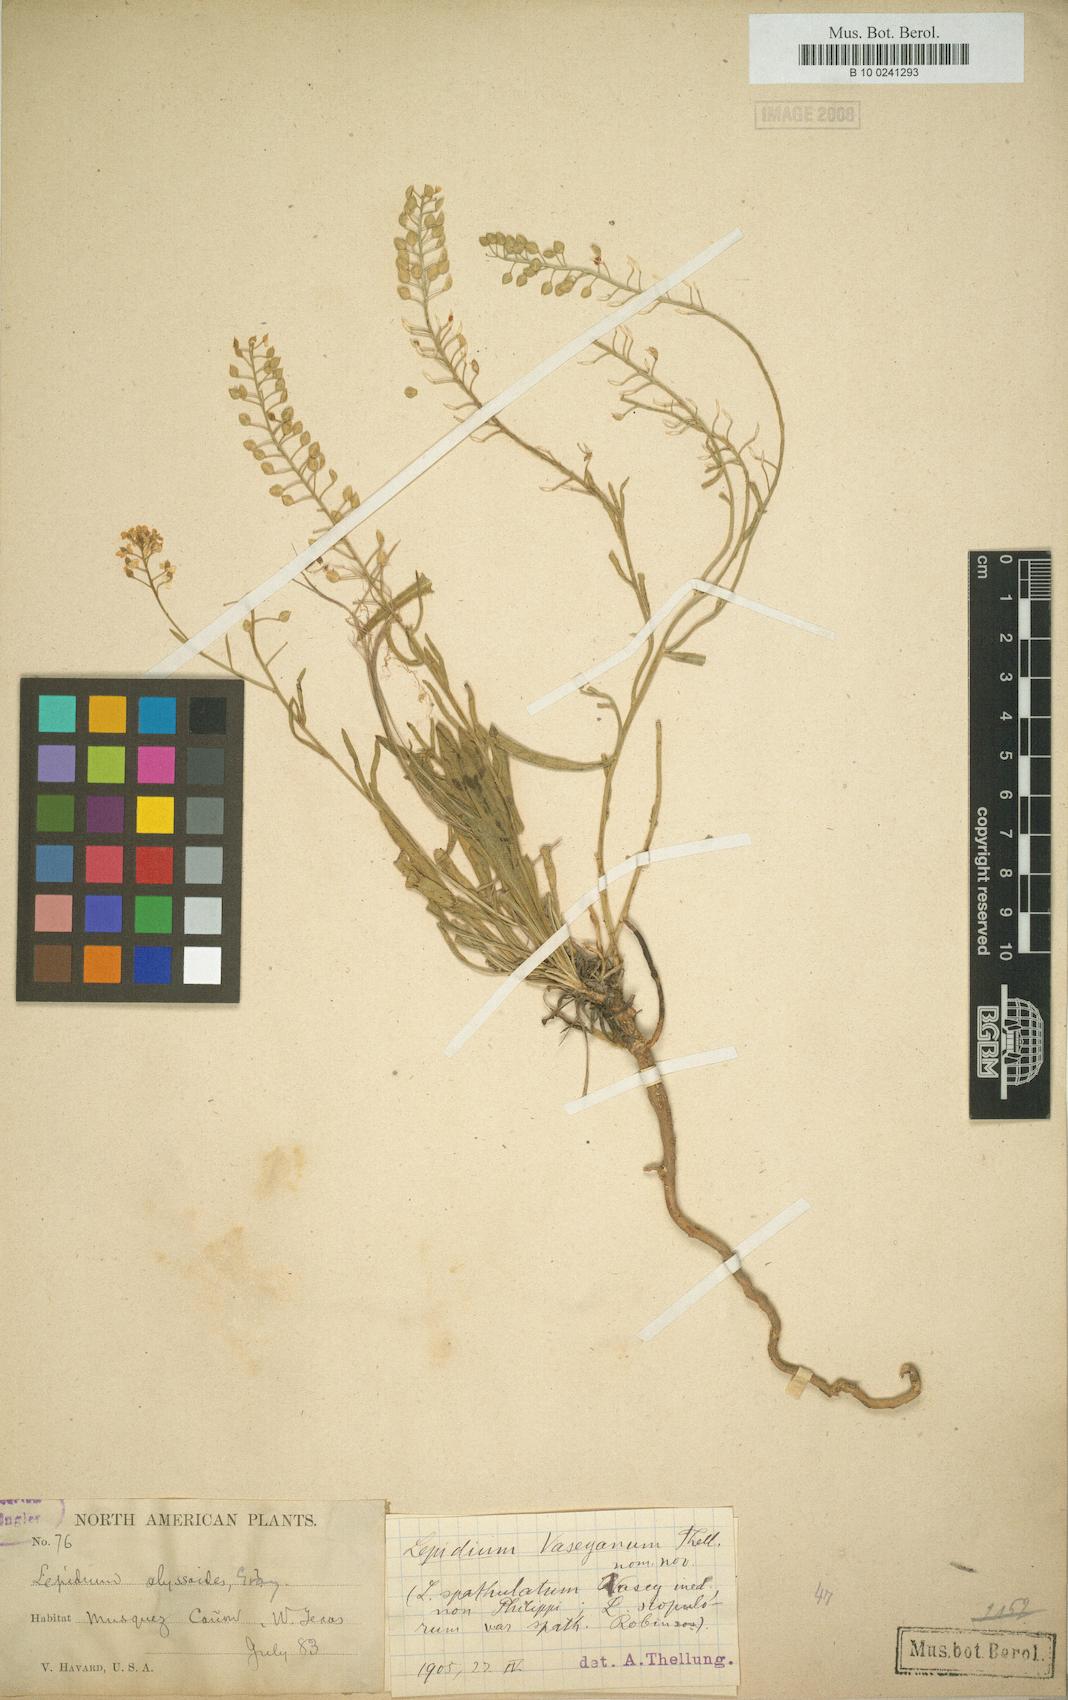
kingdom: Plantae
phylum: Tracheophyta
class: Magnoliopsida
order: Brassicales
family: Brassicaceae
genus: Lepidium
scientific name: Lepidium crenatum
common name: Alkali pepperweed
